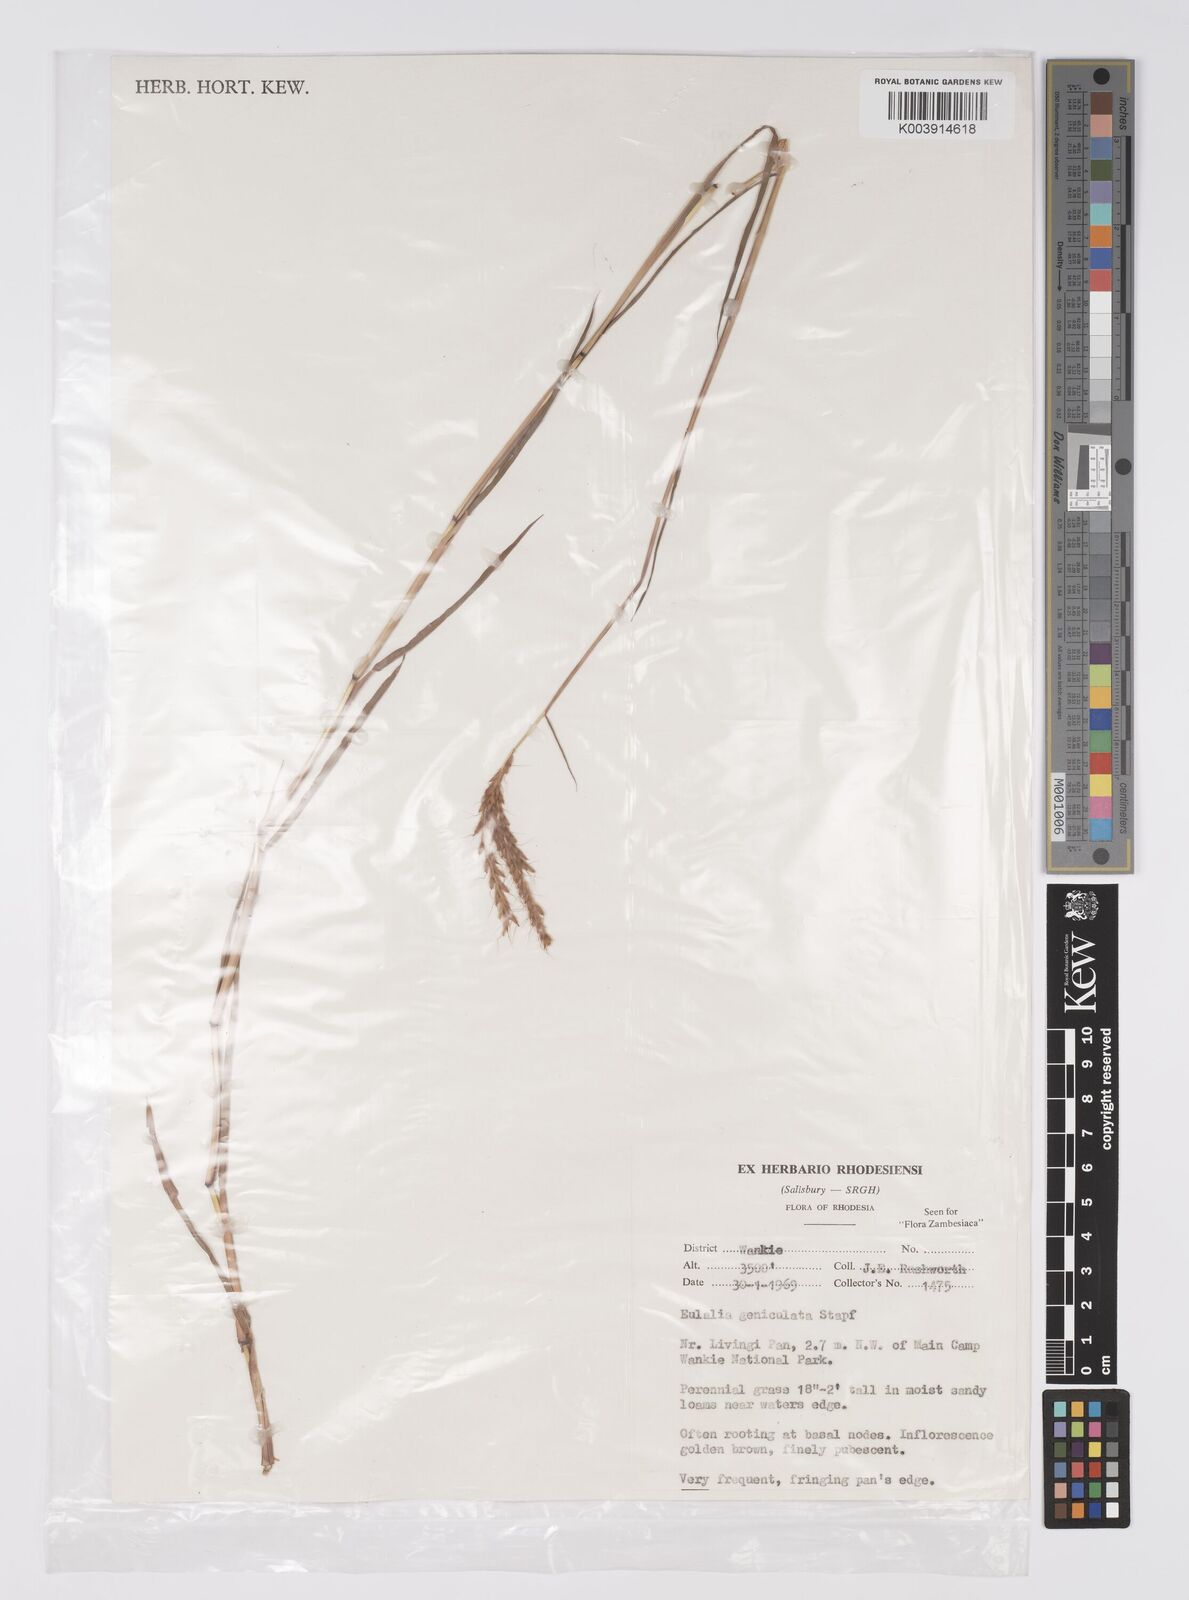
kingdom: Plantae
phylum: Tracheophyta
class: Liliopsida
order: Poales
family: Poaceae
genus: Eulalia
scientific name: Eulalia aurea
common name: Silky browntop
